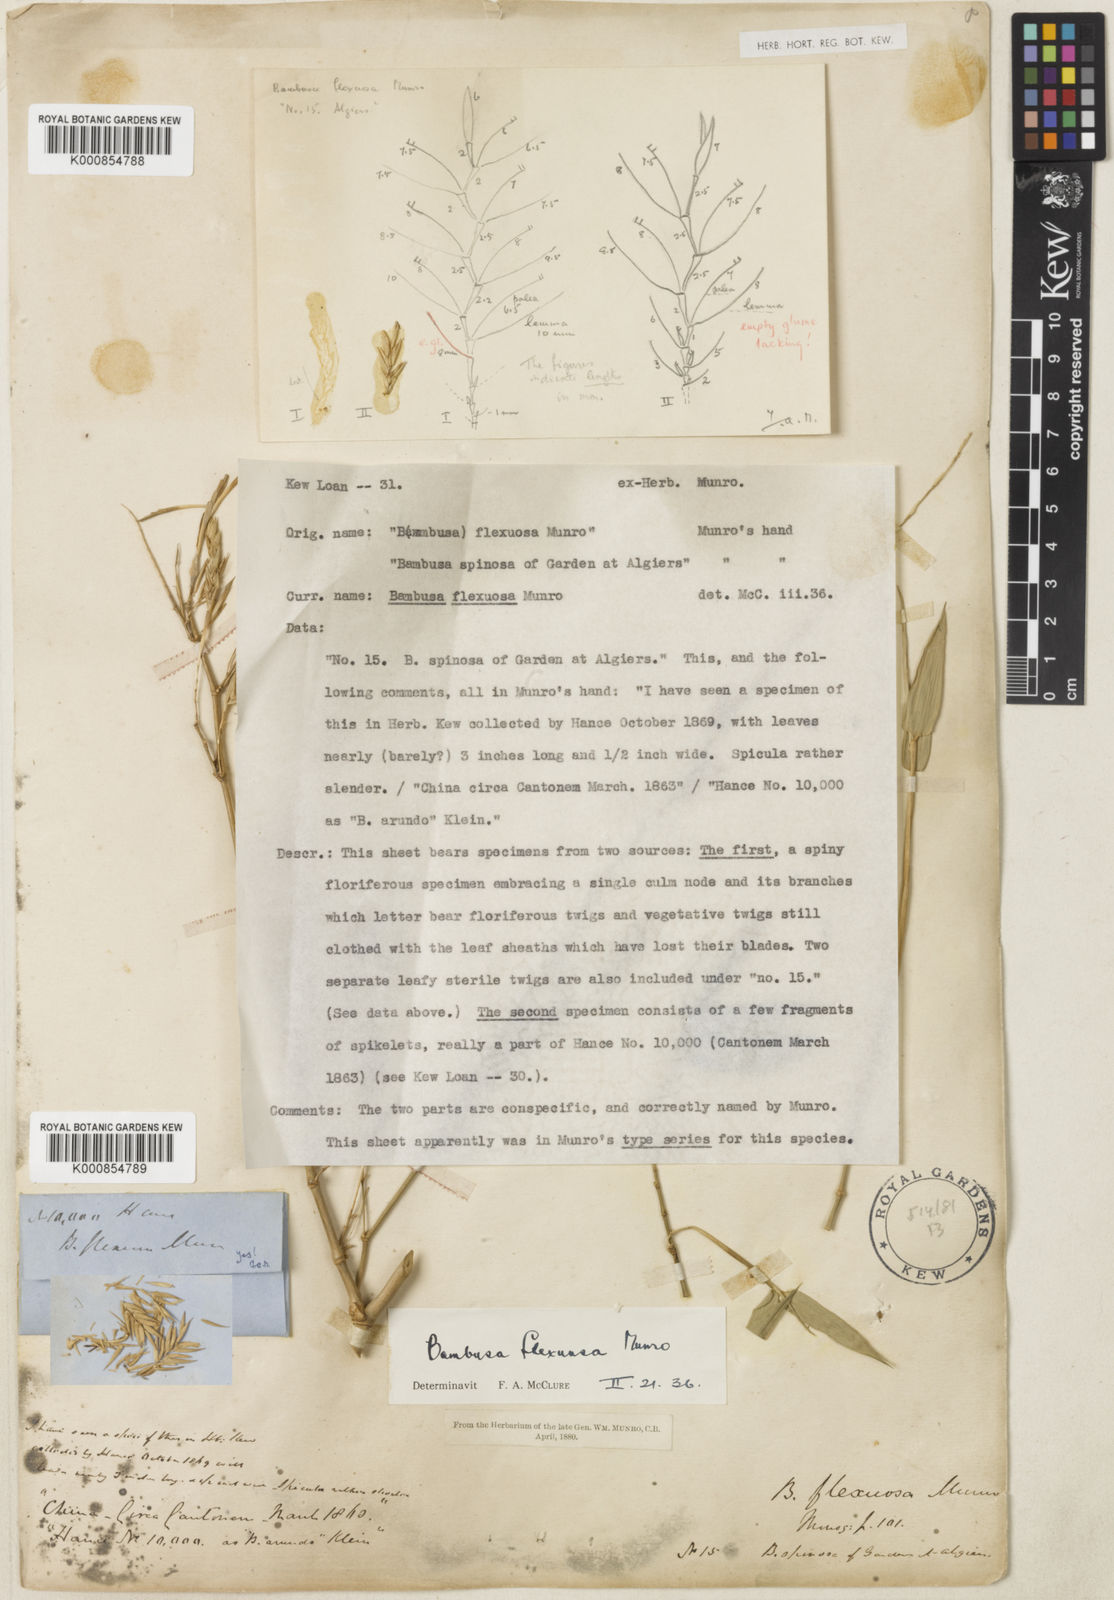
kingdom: Plantae
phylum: Tracheophyta
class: Liliopsida
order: Poales
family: Poaceae
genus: Bambusa
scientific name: Bambusa flexuosa
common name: Lesser thorny bamboo
